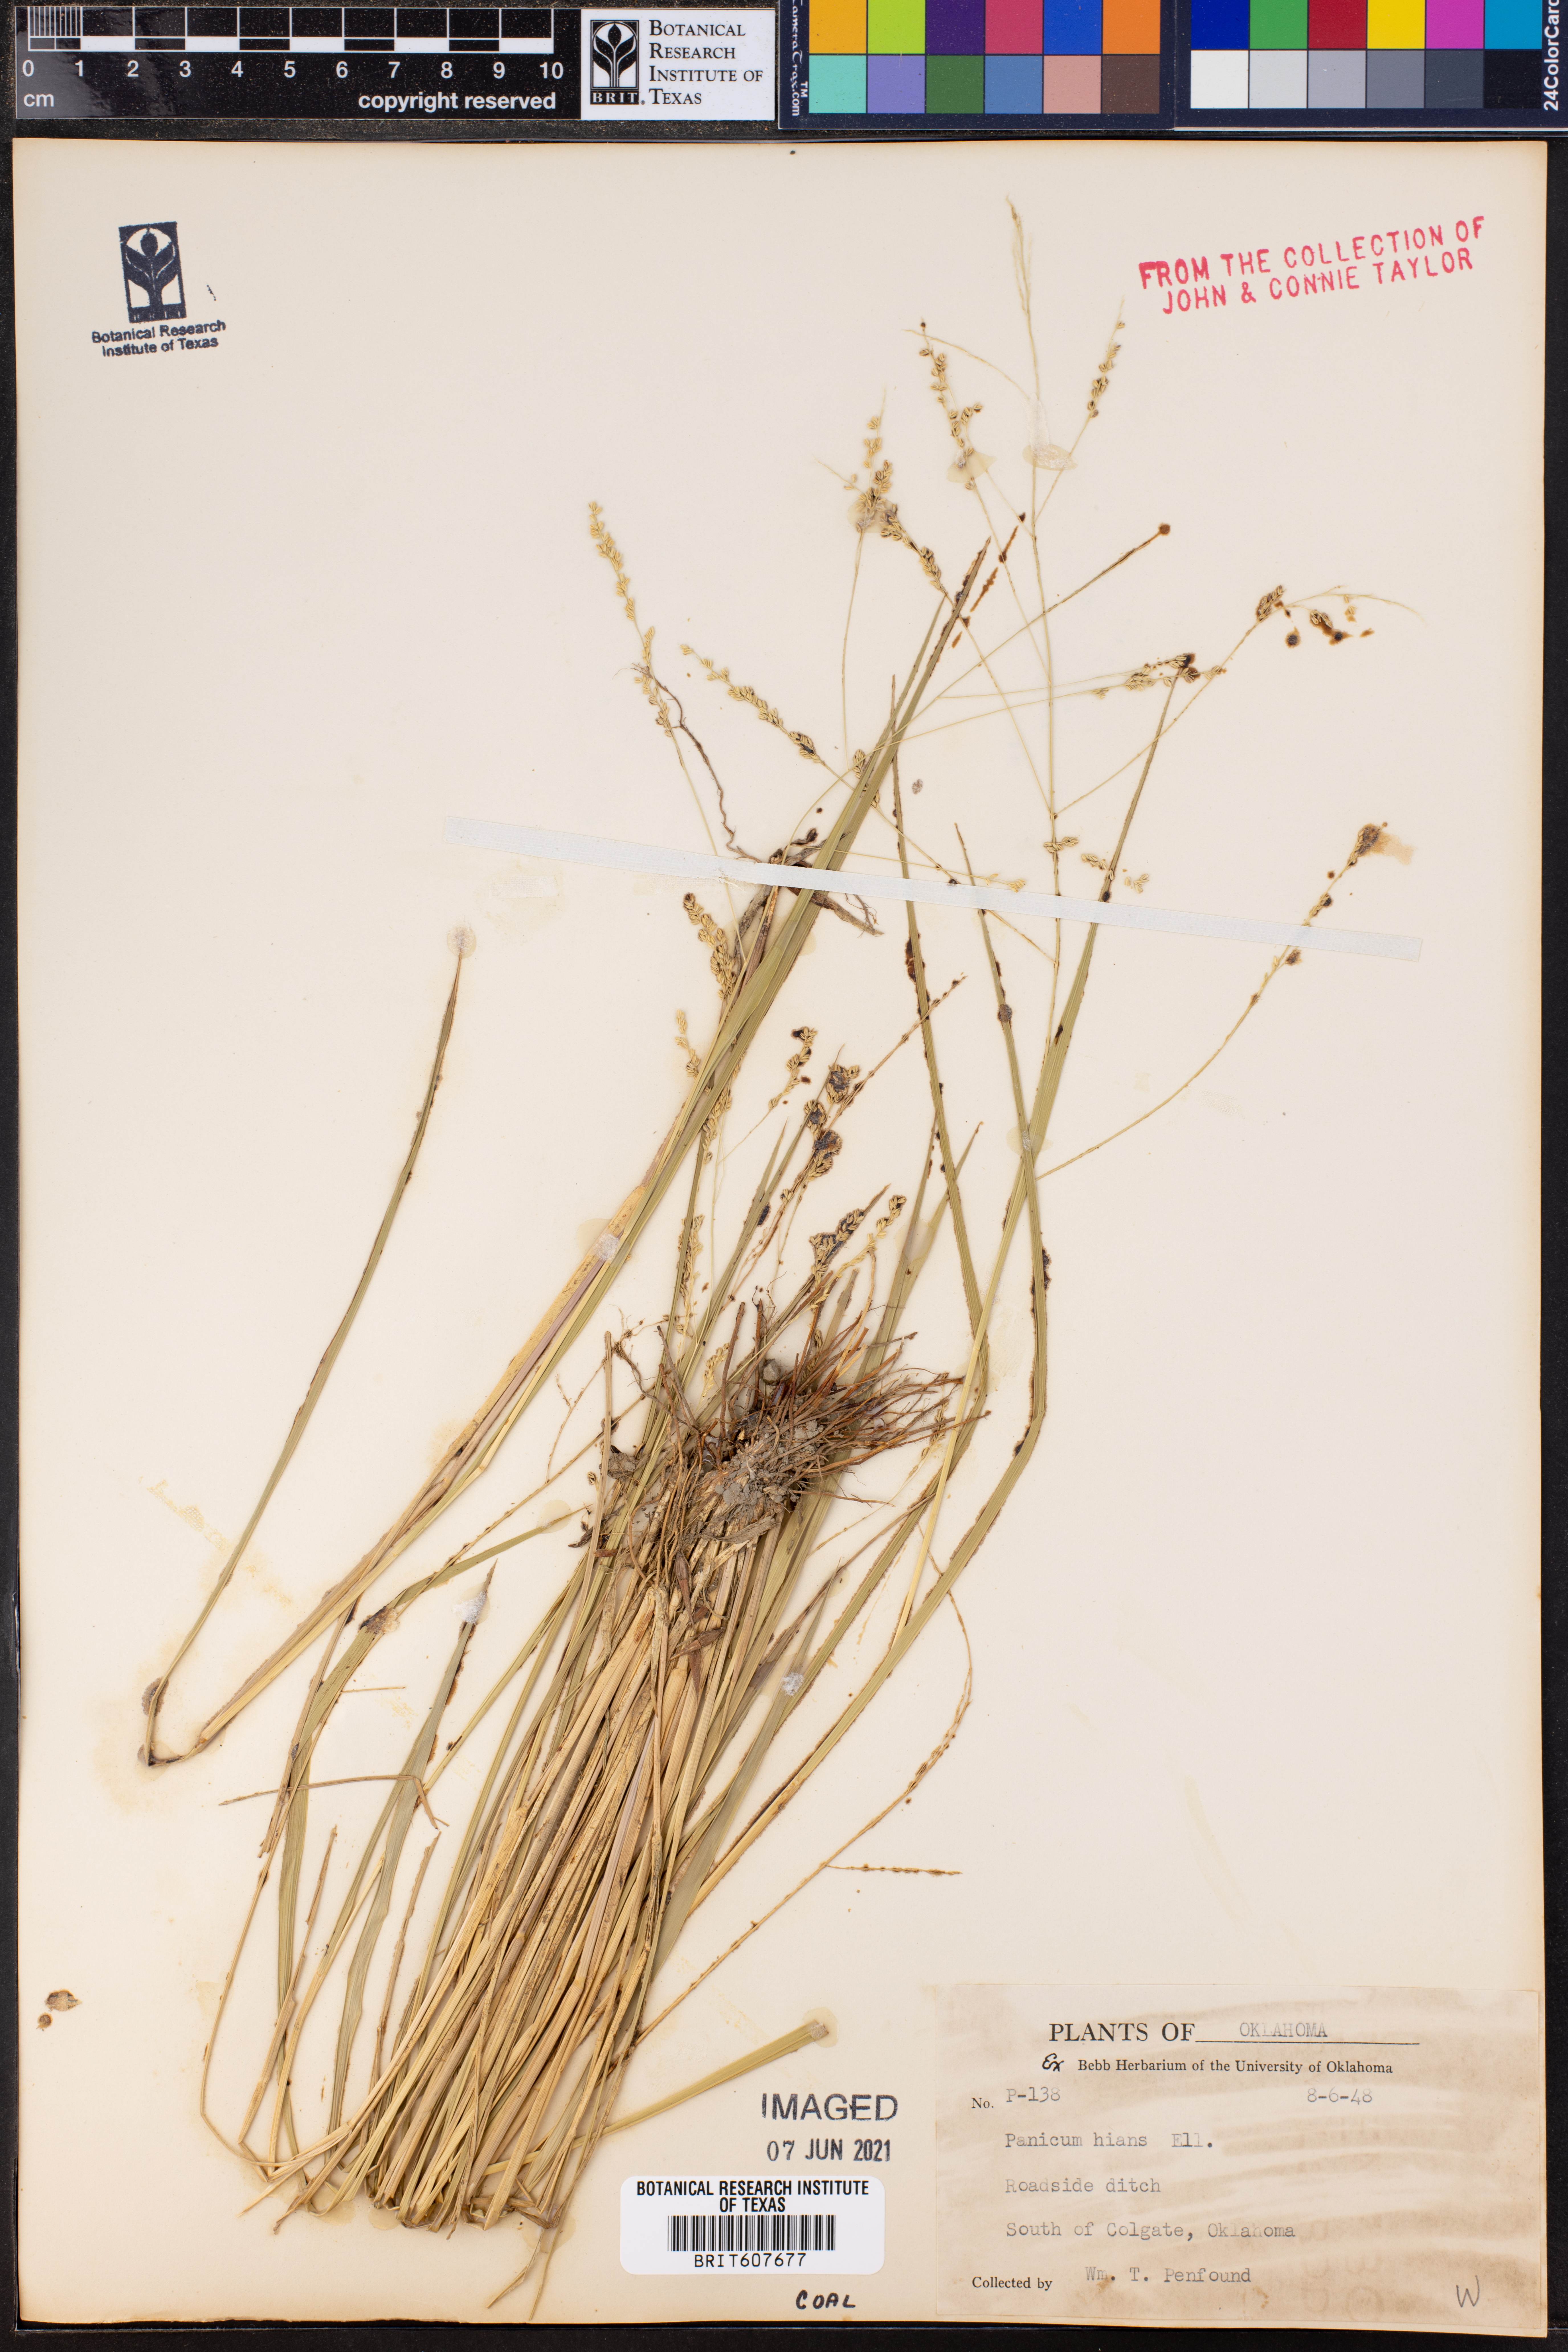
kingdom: Plantae
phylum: Tracheophyta
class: Liliopsida
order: Poales
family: Poaceae
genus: Coleataenia
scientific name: Coleataenia stenodes
